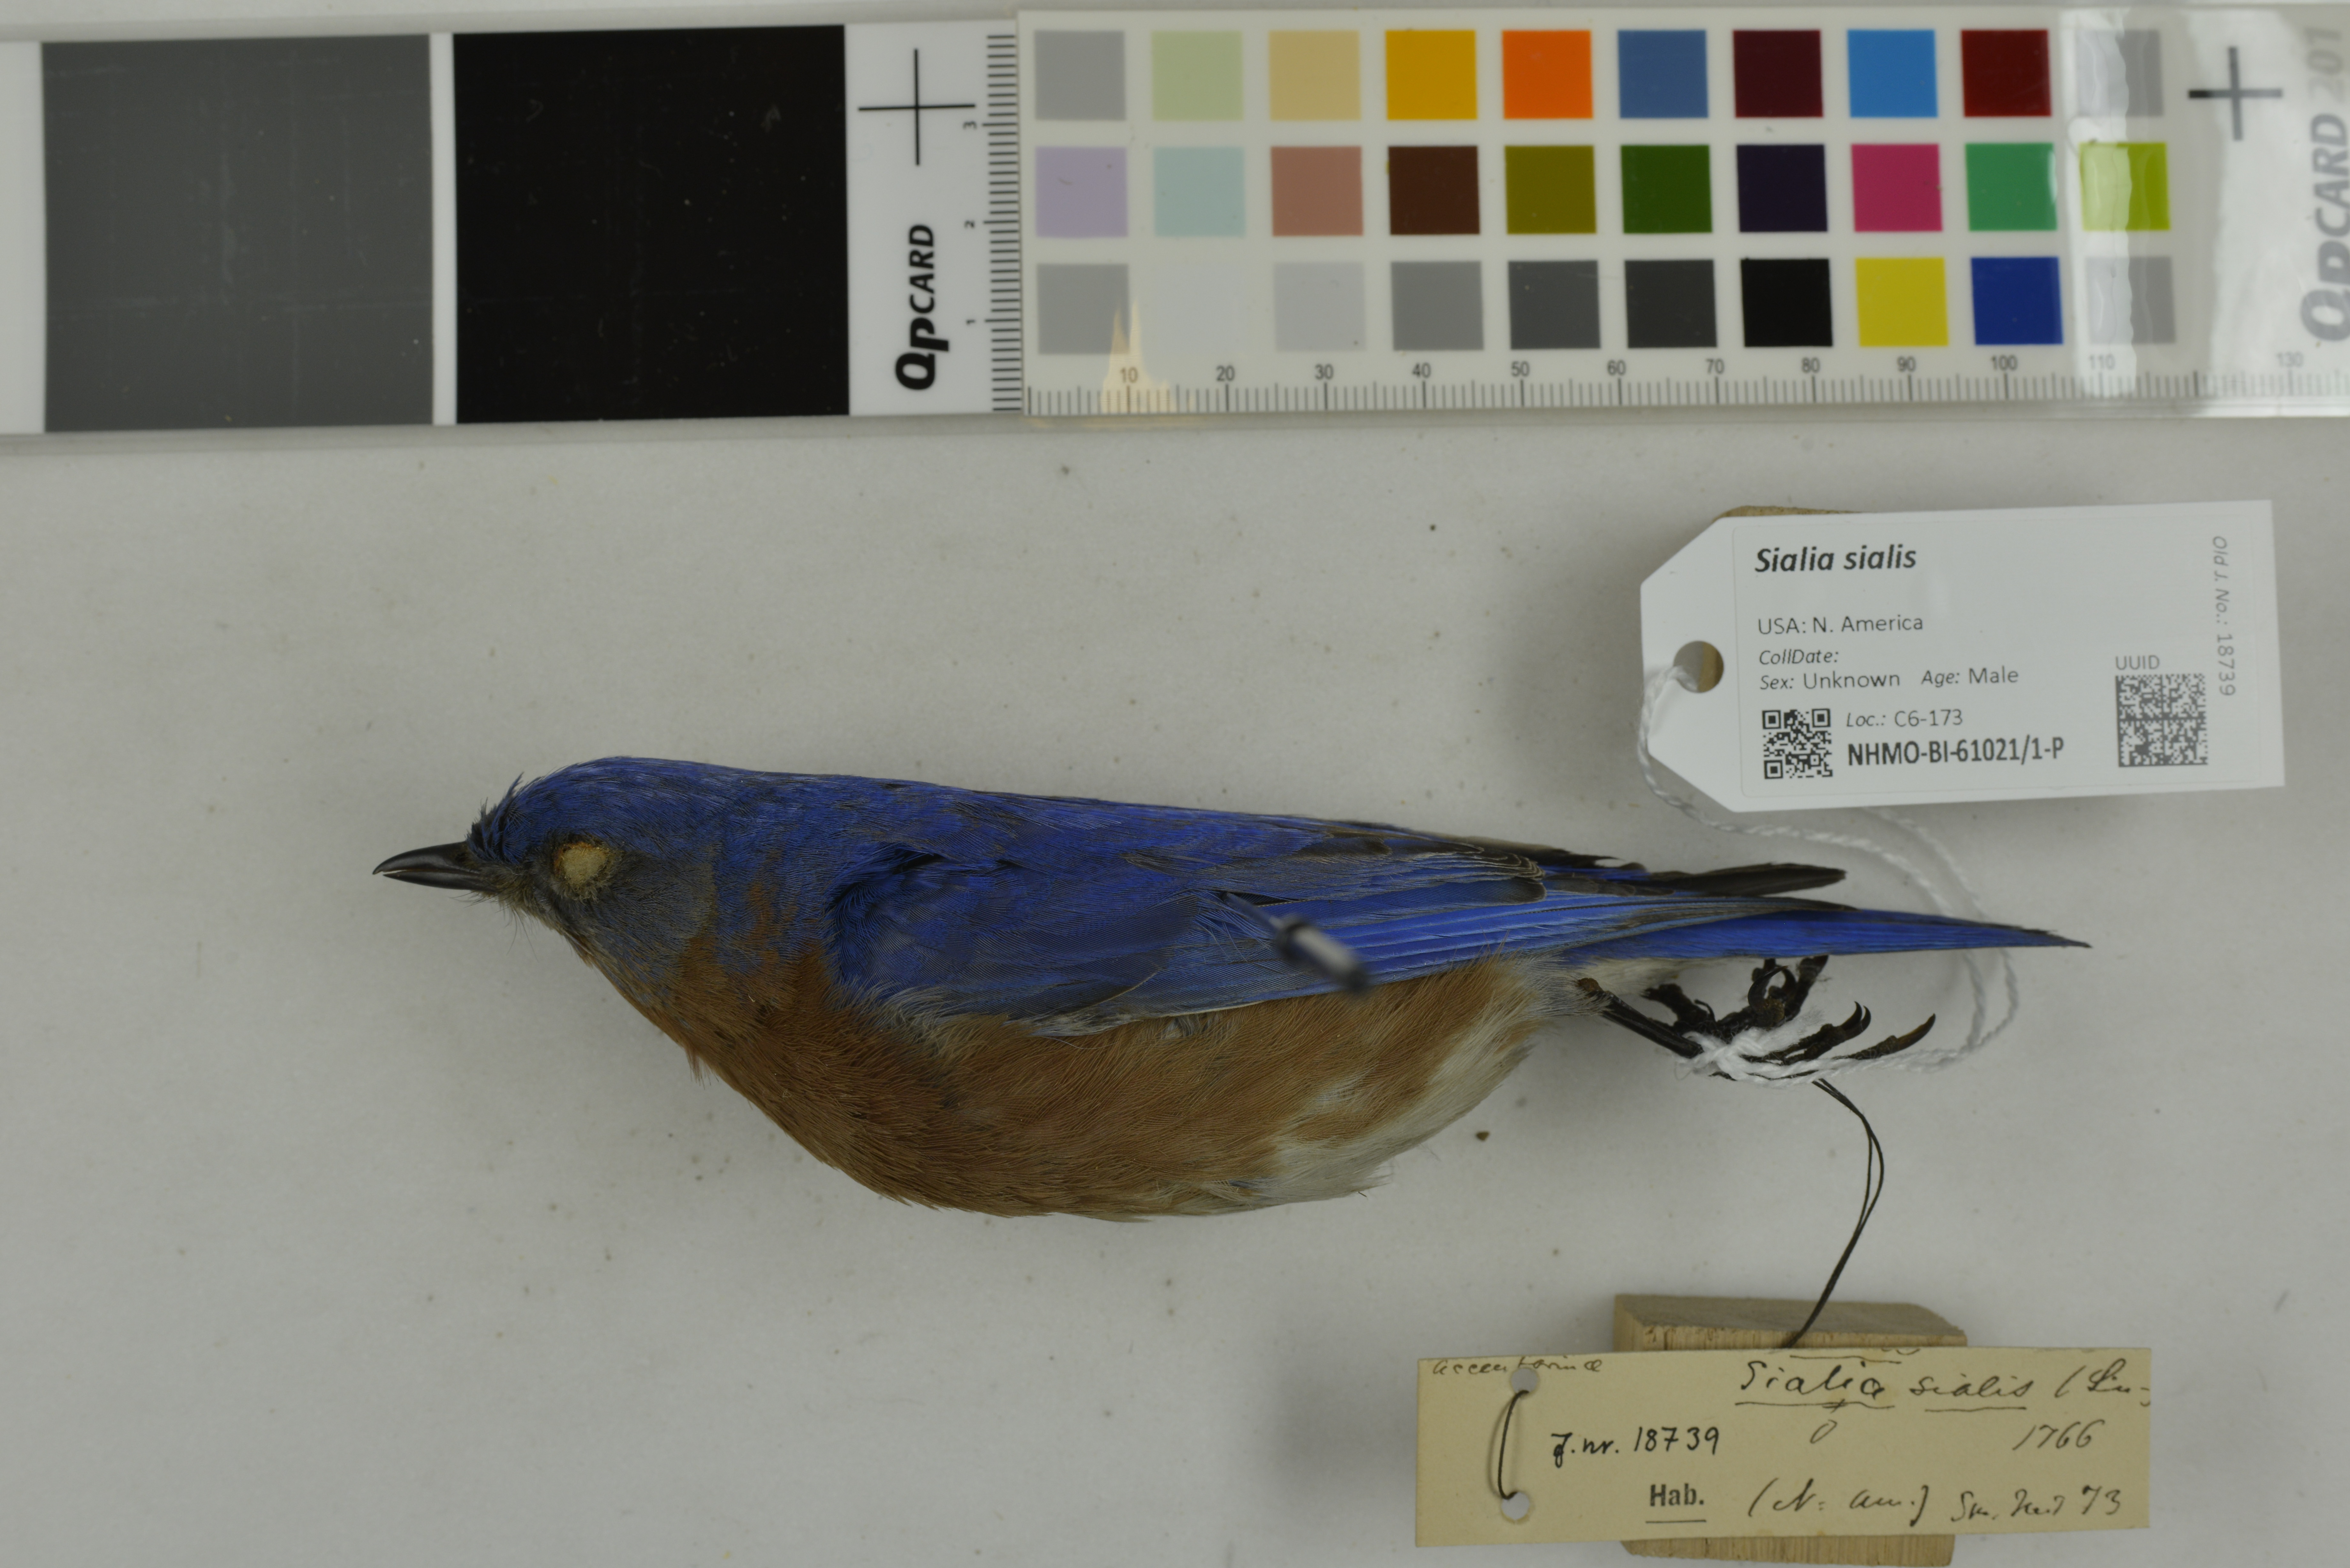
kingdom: Animalia
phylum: Chordata
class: Aves
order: Passeriformes
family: Turdidae
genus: Sialia
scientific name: Sialia sialis
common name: Eastern bluebird
